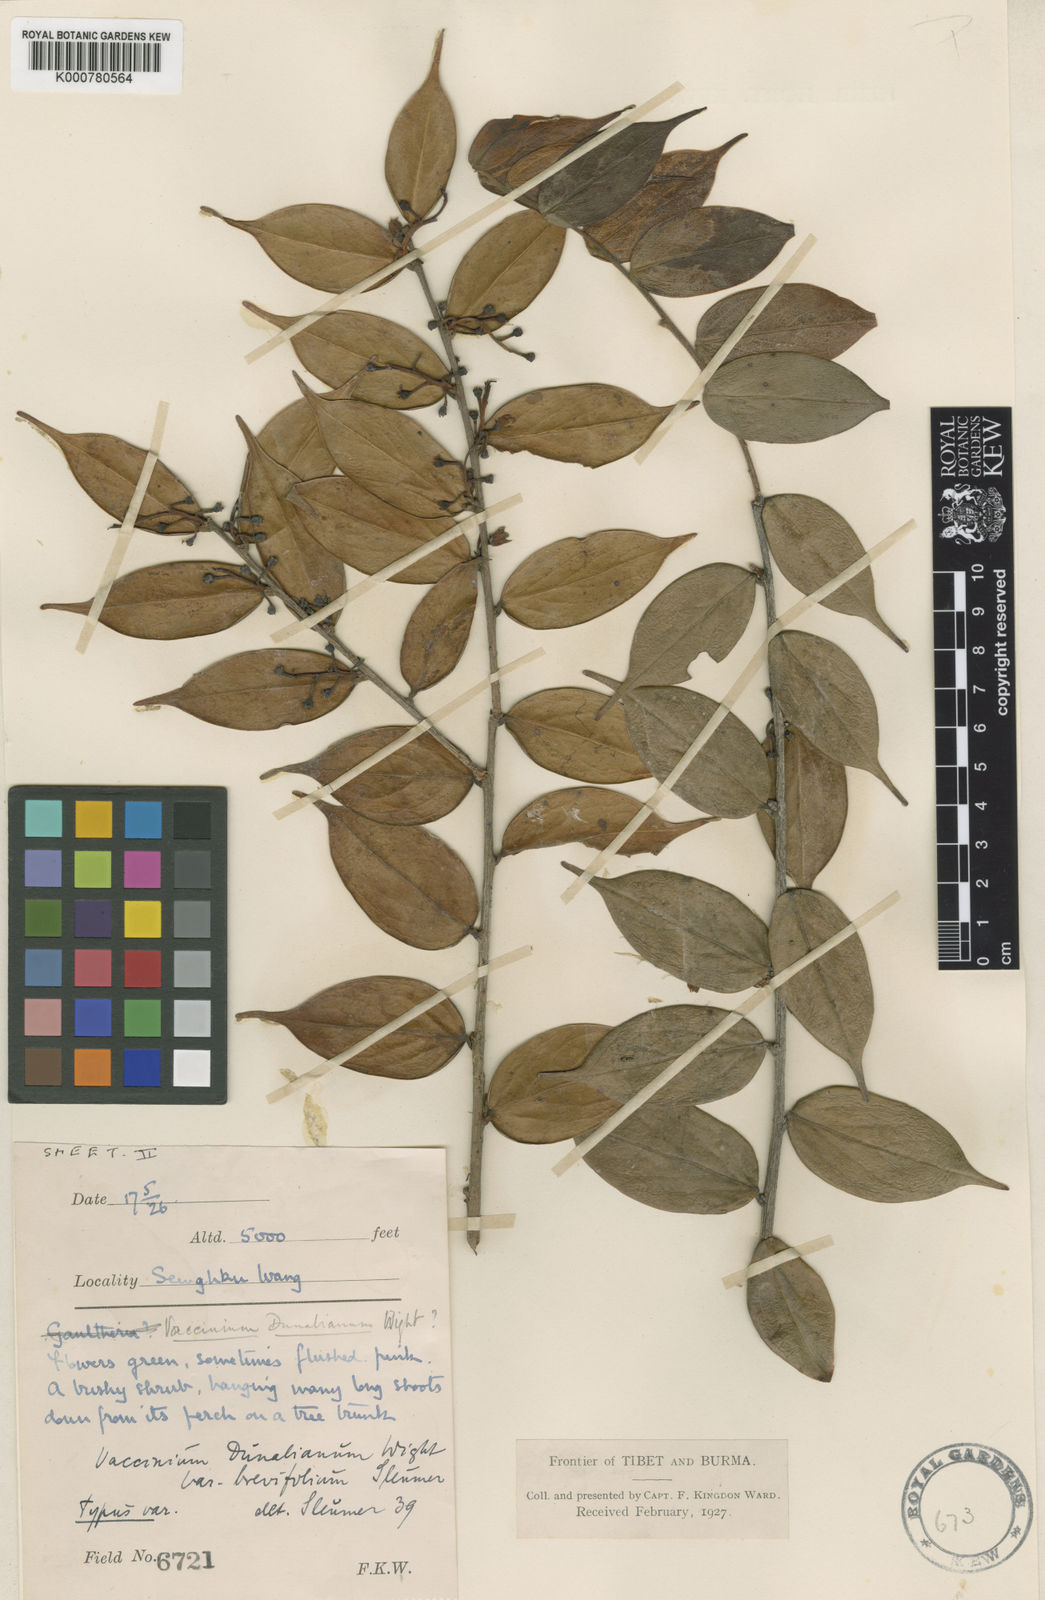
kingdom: Plantae
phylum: Tracheophyta
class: Magnoliopsida
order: Ericales
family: Ericaceae
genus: Vaccinium
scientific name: Vaccinium dunalianum
